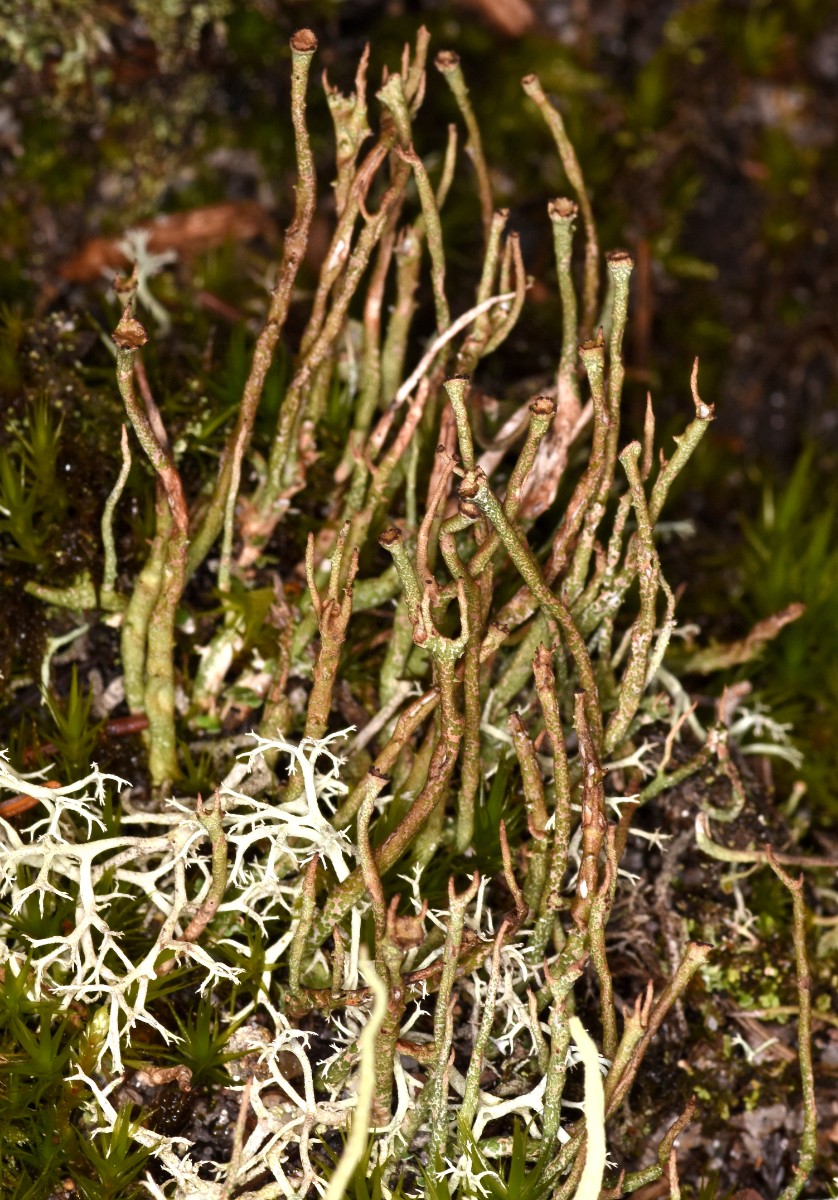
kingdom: Fungi
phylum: Ascomycota
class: Lecanoromycetes
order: Lecanorales
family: Cladoniaceae
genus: Cladonia
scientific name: Cladonia gracilis
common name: slank bægerlav
